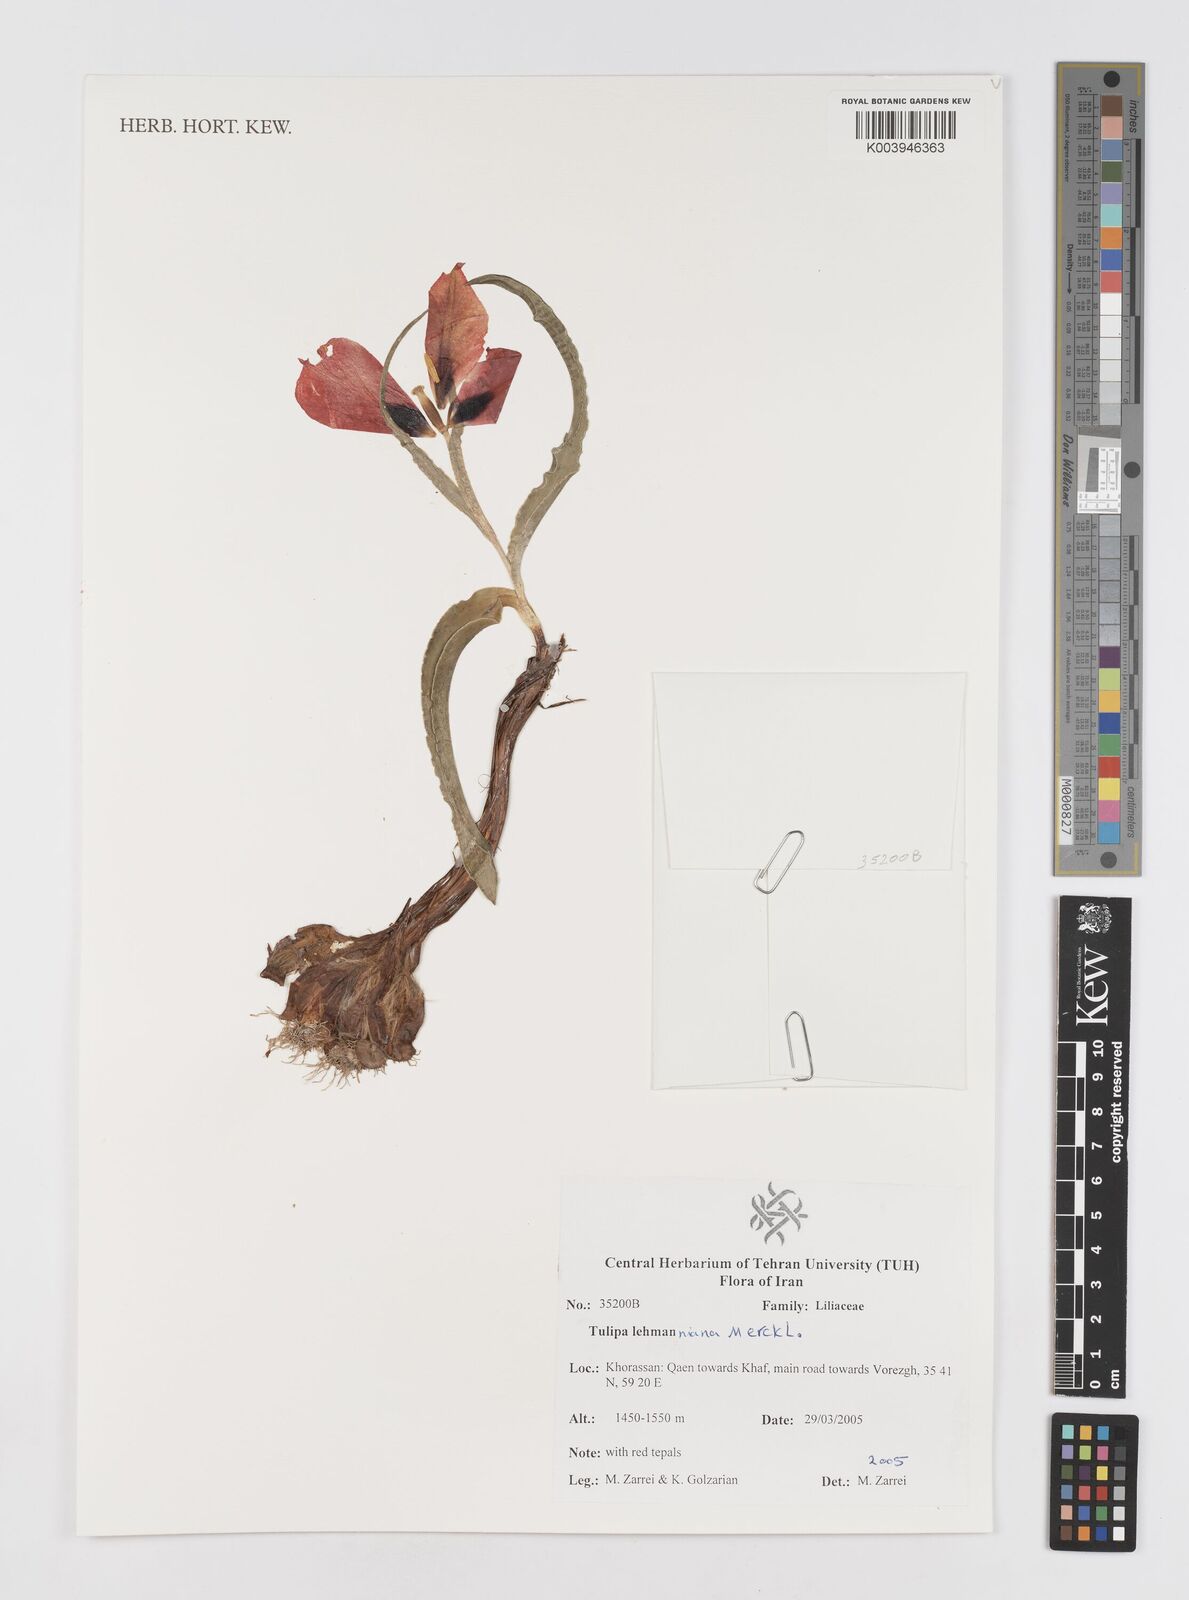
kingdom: Plantae
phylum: Tracheophyta
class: Liliopsida
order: Liliales
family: Liliaceae
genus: Tulipa
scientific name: Tulipa lehmanniana
